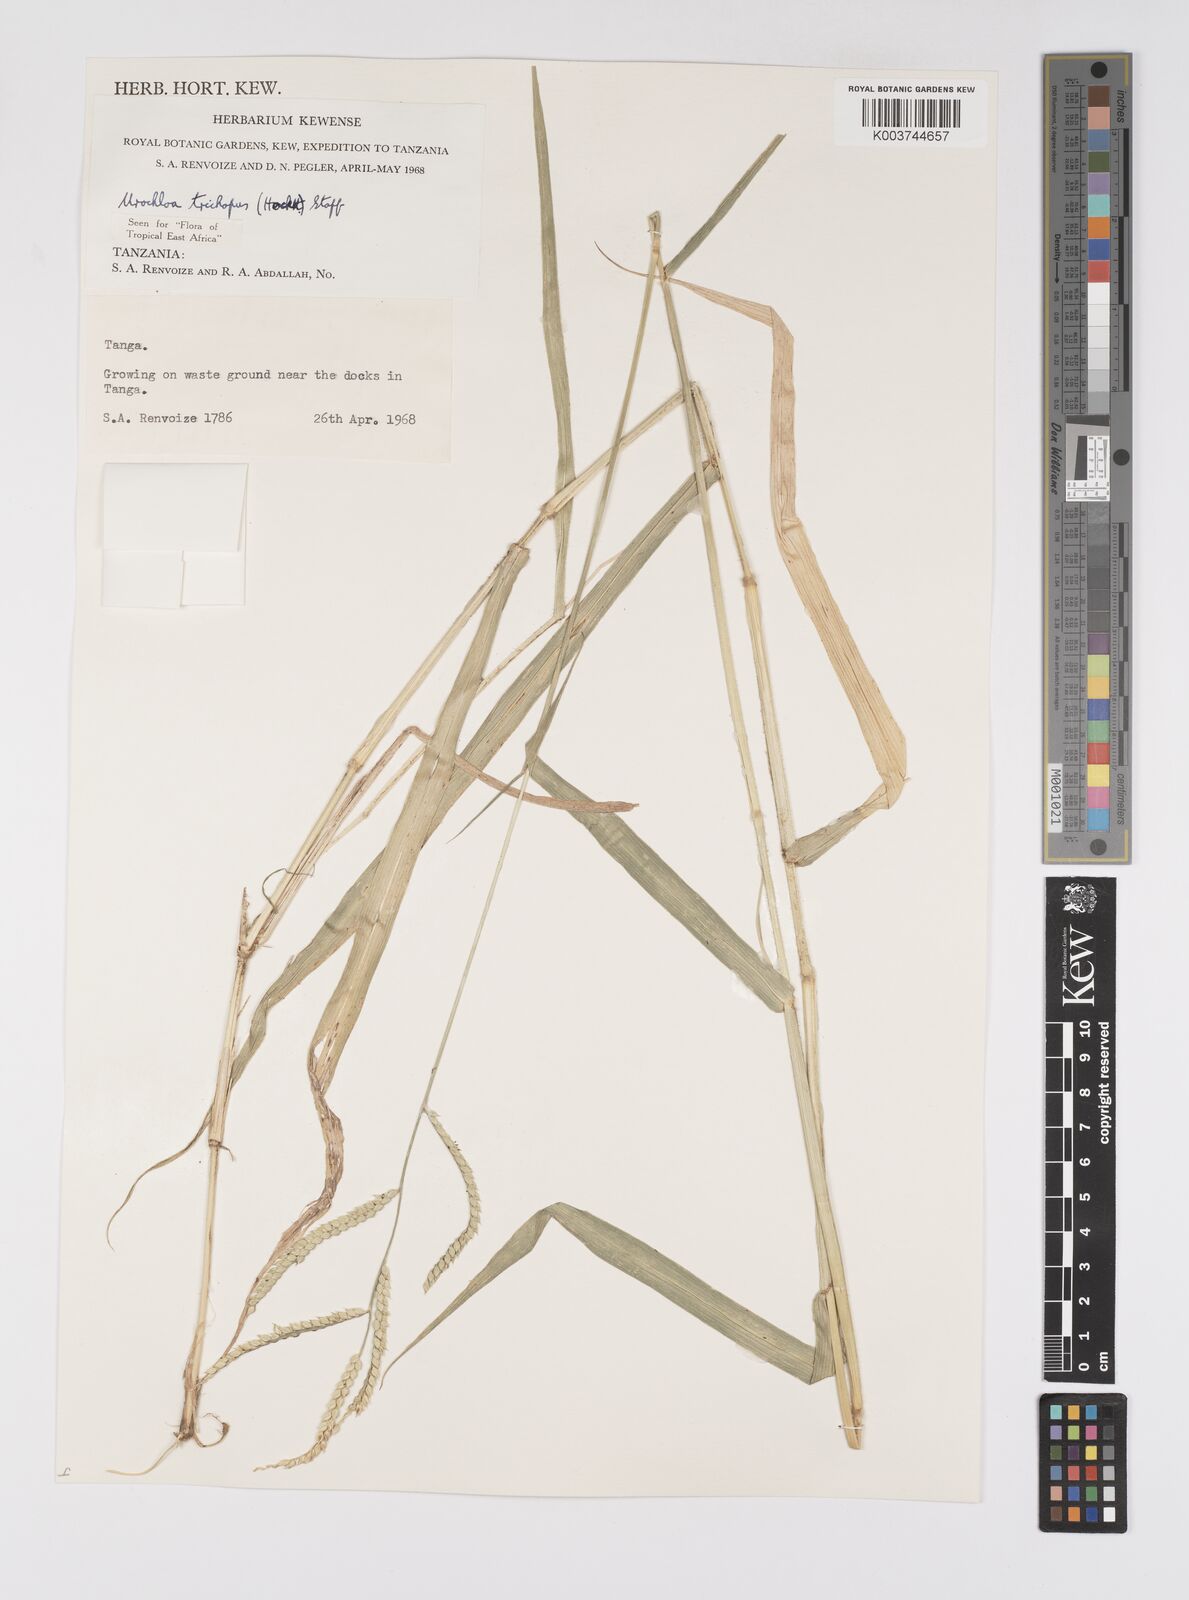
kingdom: Plantae
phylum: Tracheophyta
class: Liliopsida
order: Poales
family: Poaceae
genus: Urochloa
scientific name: Urochloa trichopus
